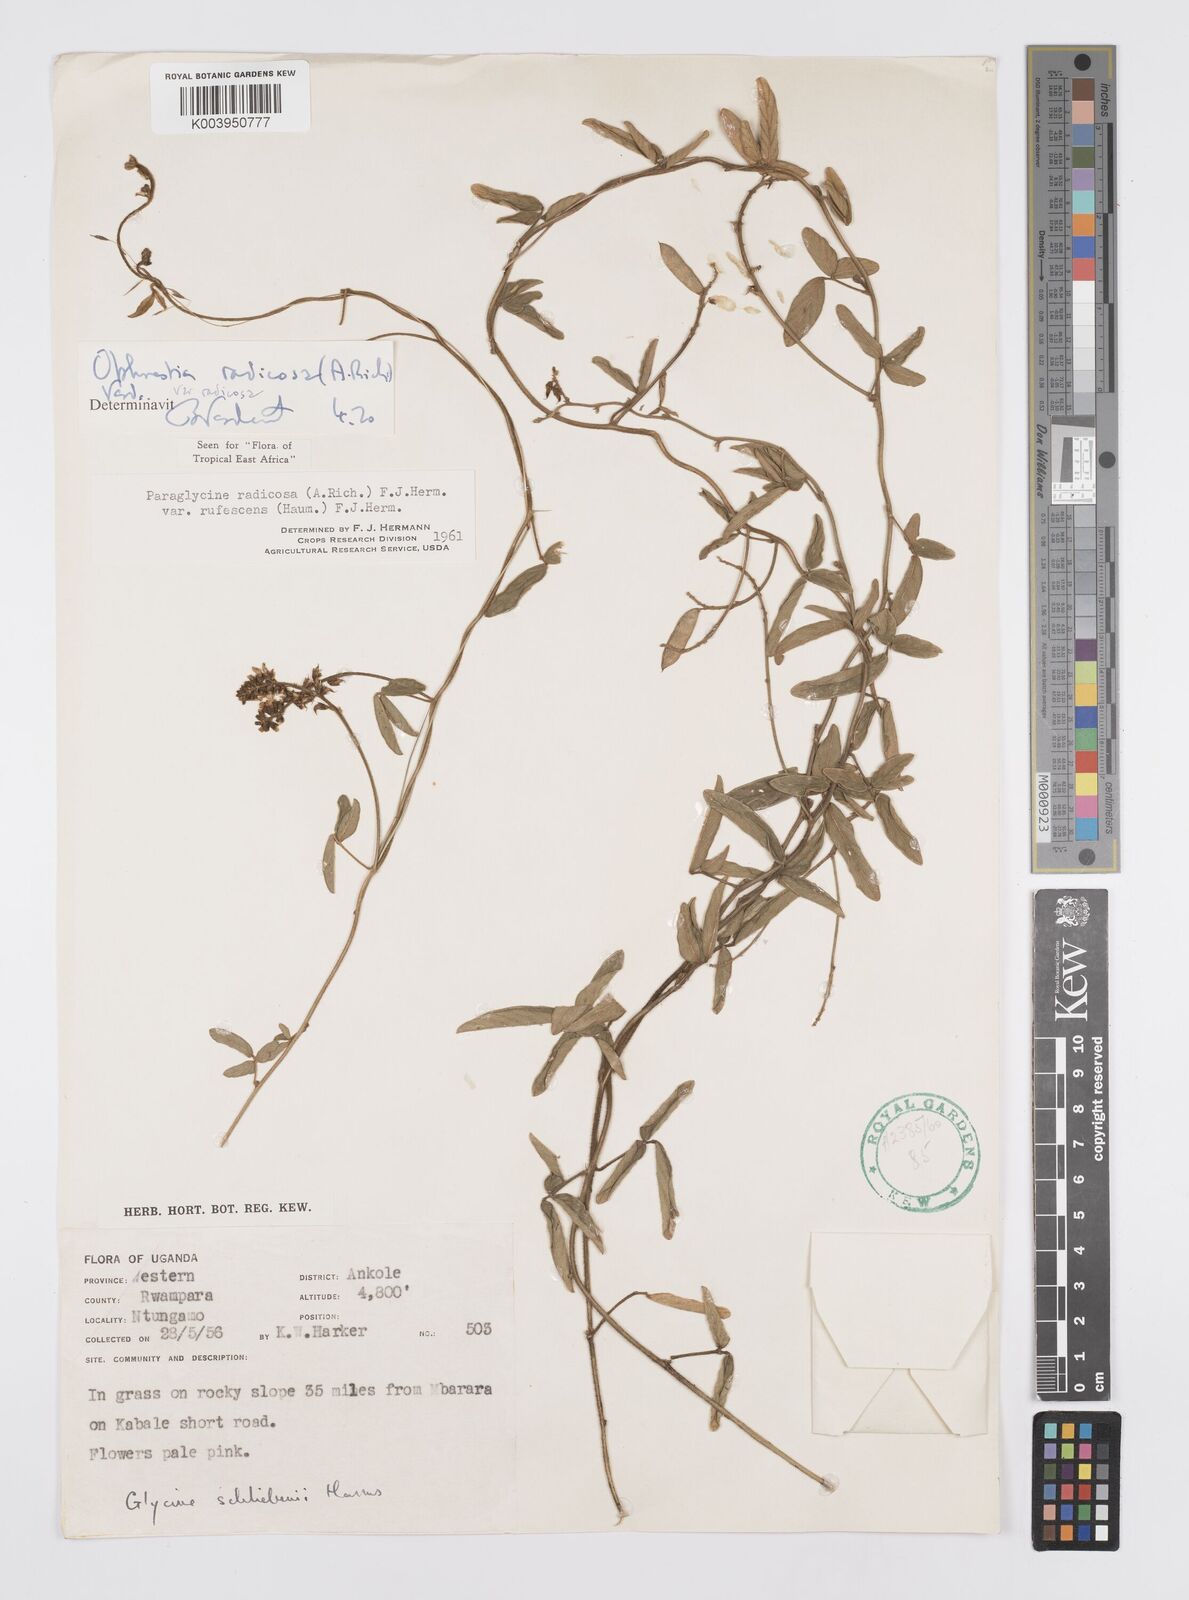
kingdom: Plantae
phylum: Tracheophyta
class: Magnoliopsida
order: Fabales
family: Fabaceae
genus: Ophrestia
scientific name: Ophrestia radicosa
